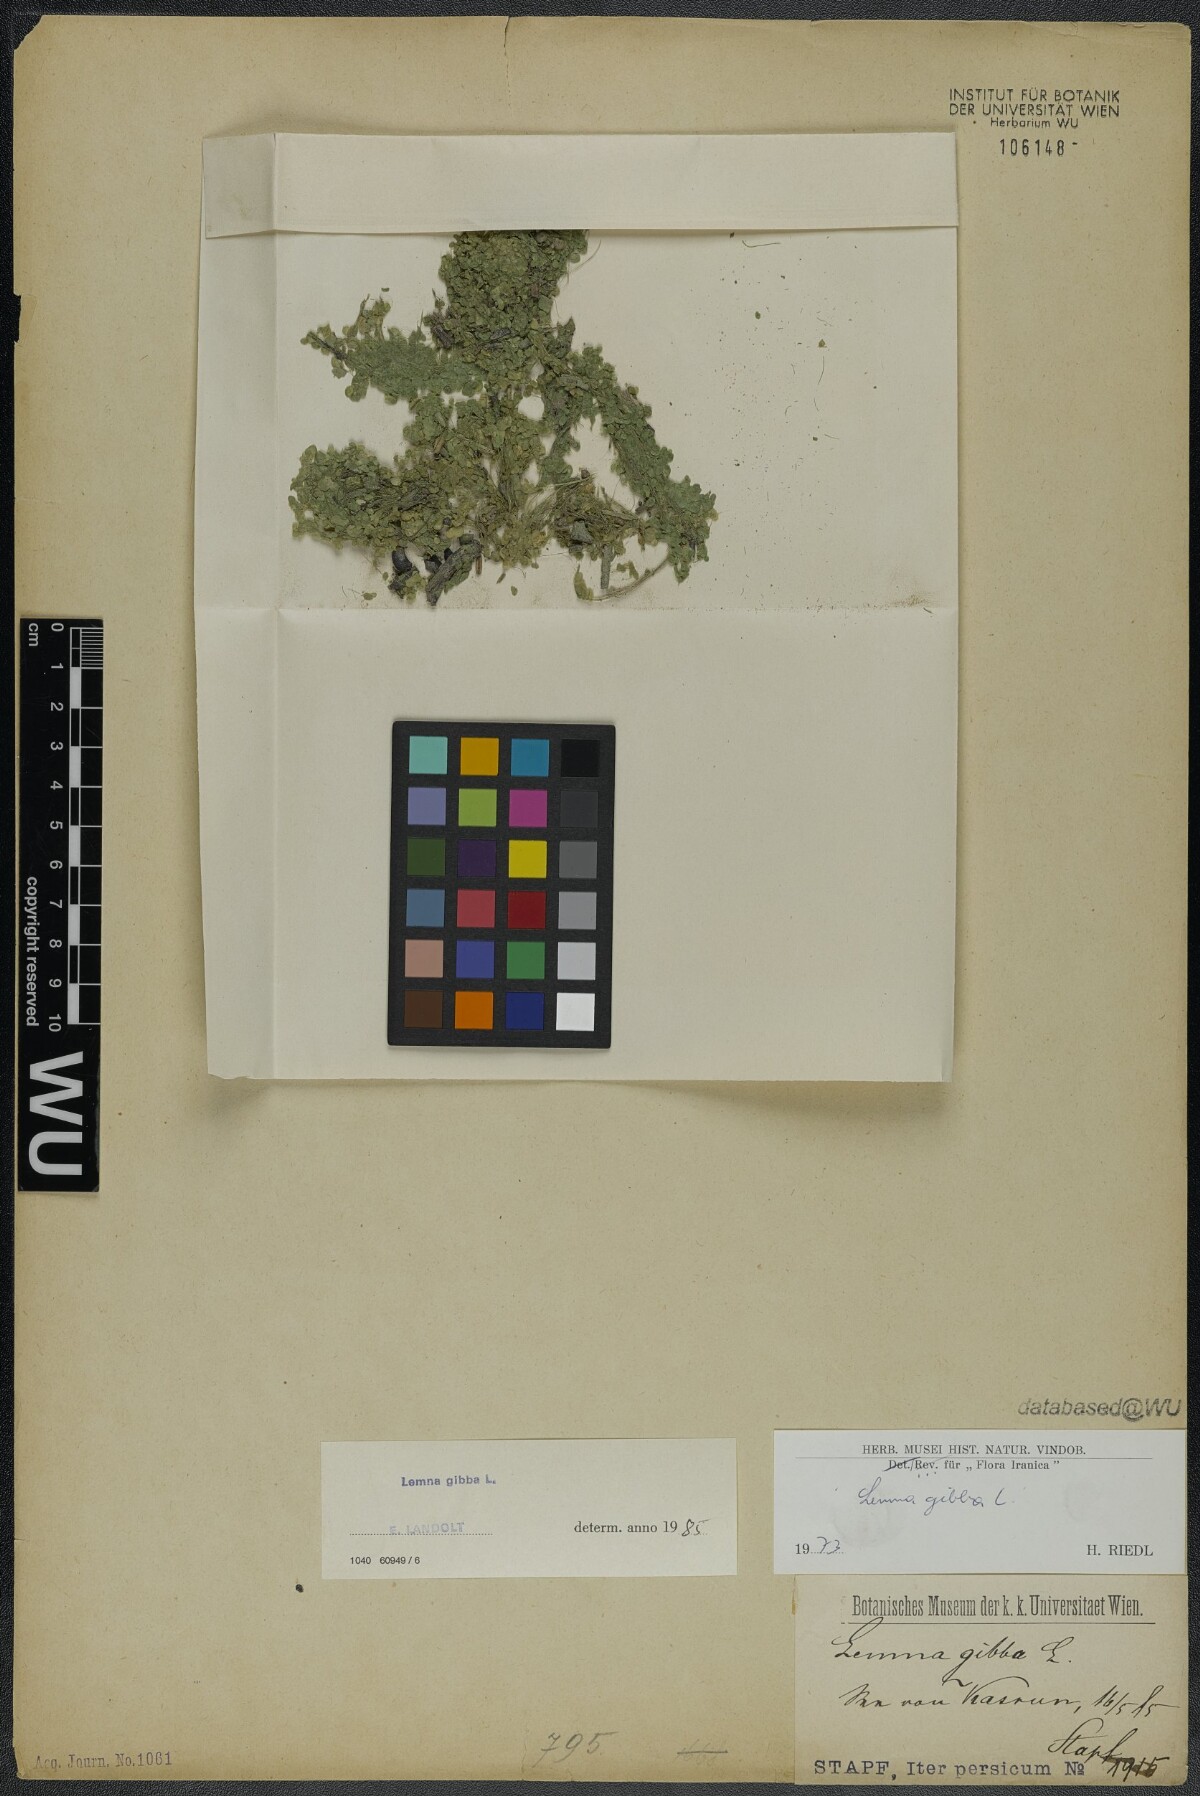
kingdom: Plantae
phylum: Tracheophyta
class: Liliopsida
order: Alismatales
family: Araceae
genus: Lemna
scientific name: Lemna gibba
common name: Fat duckweed
